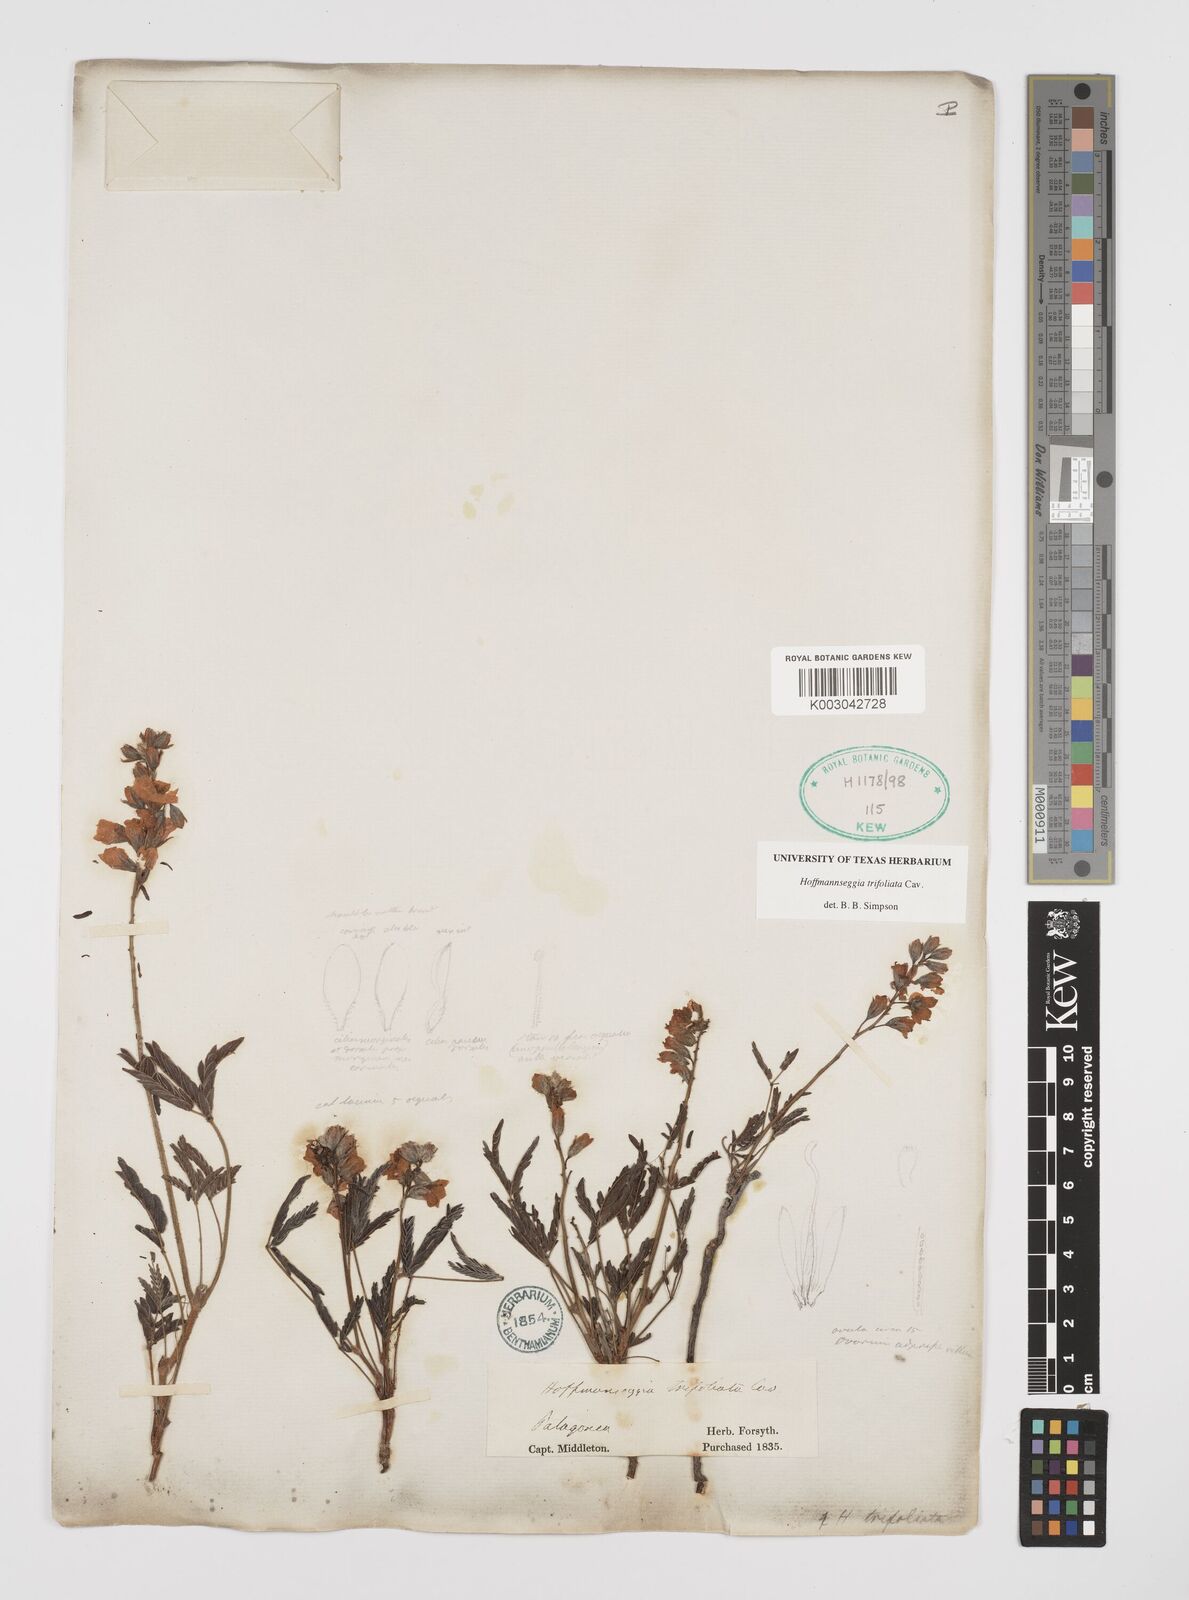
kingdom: Plantae
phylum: Tracheophyta
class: Magnoliopsida
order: Fabales
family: Fabaceae
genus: Hoffmannseggia
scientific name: Hoffmannseggia trifoliata
